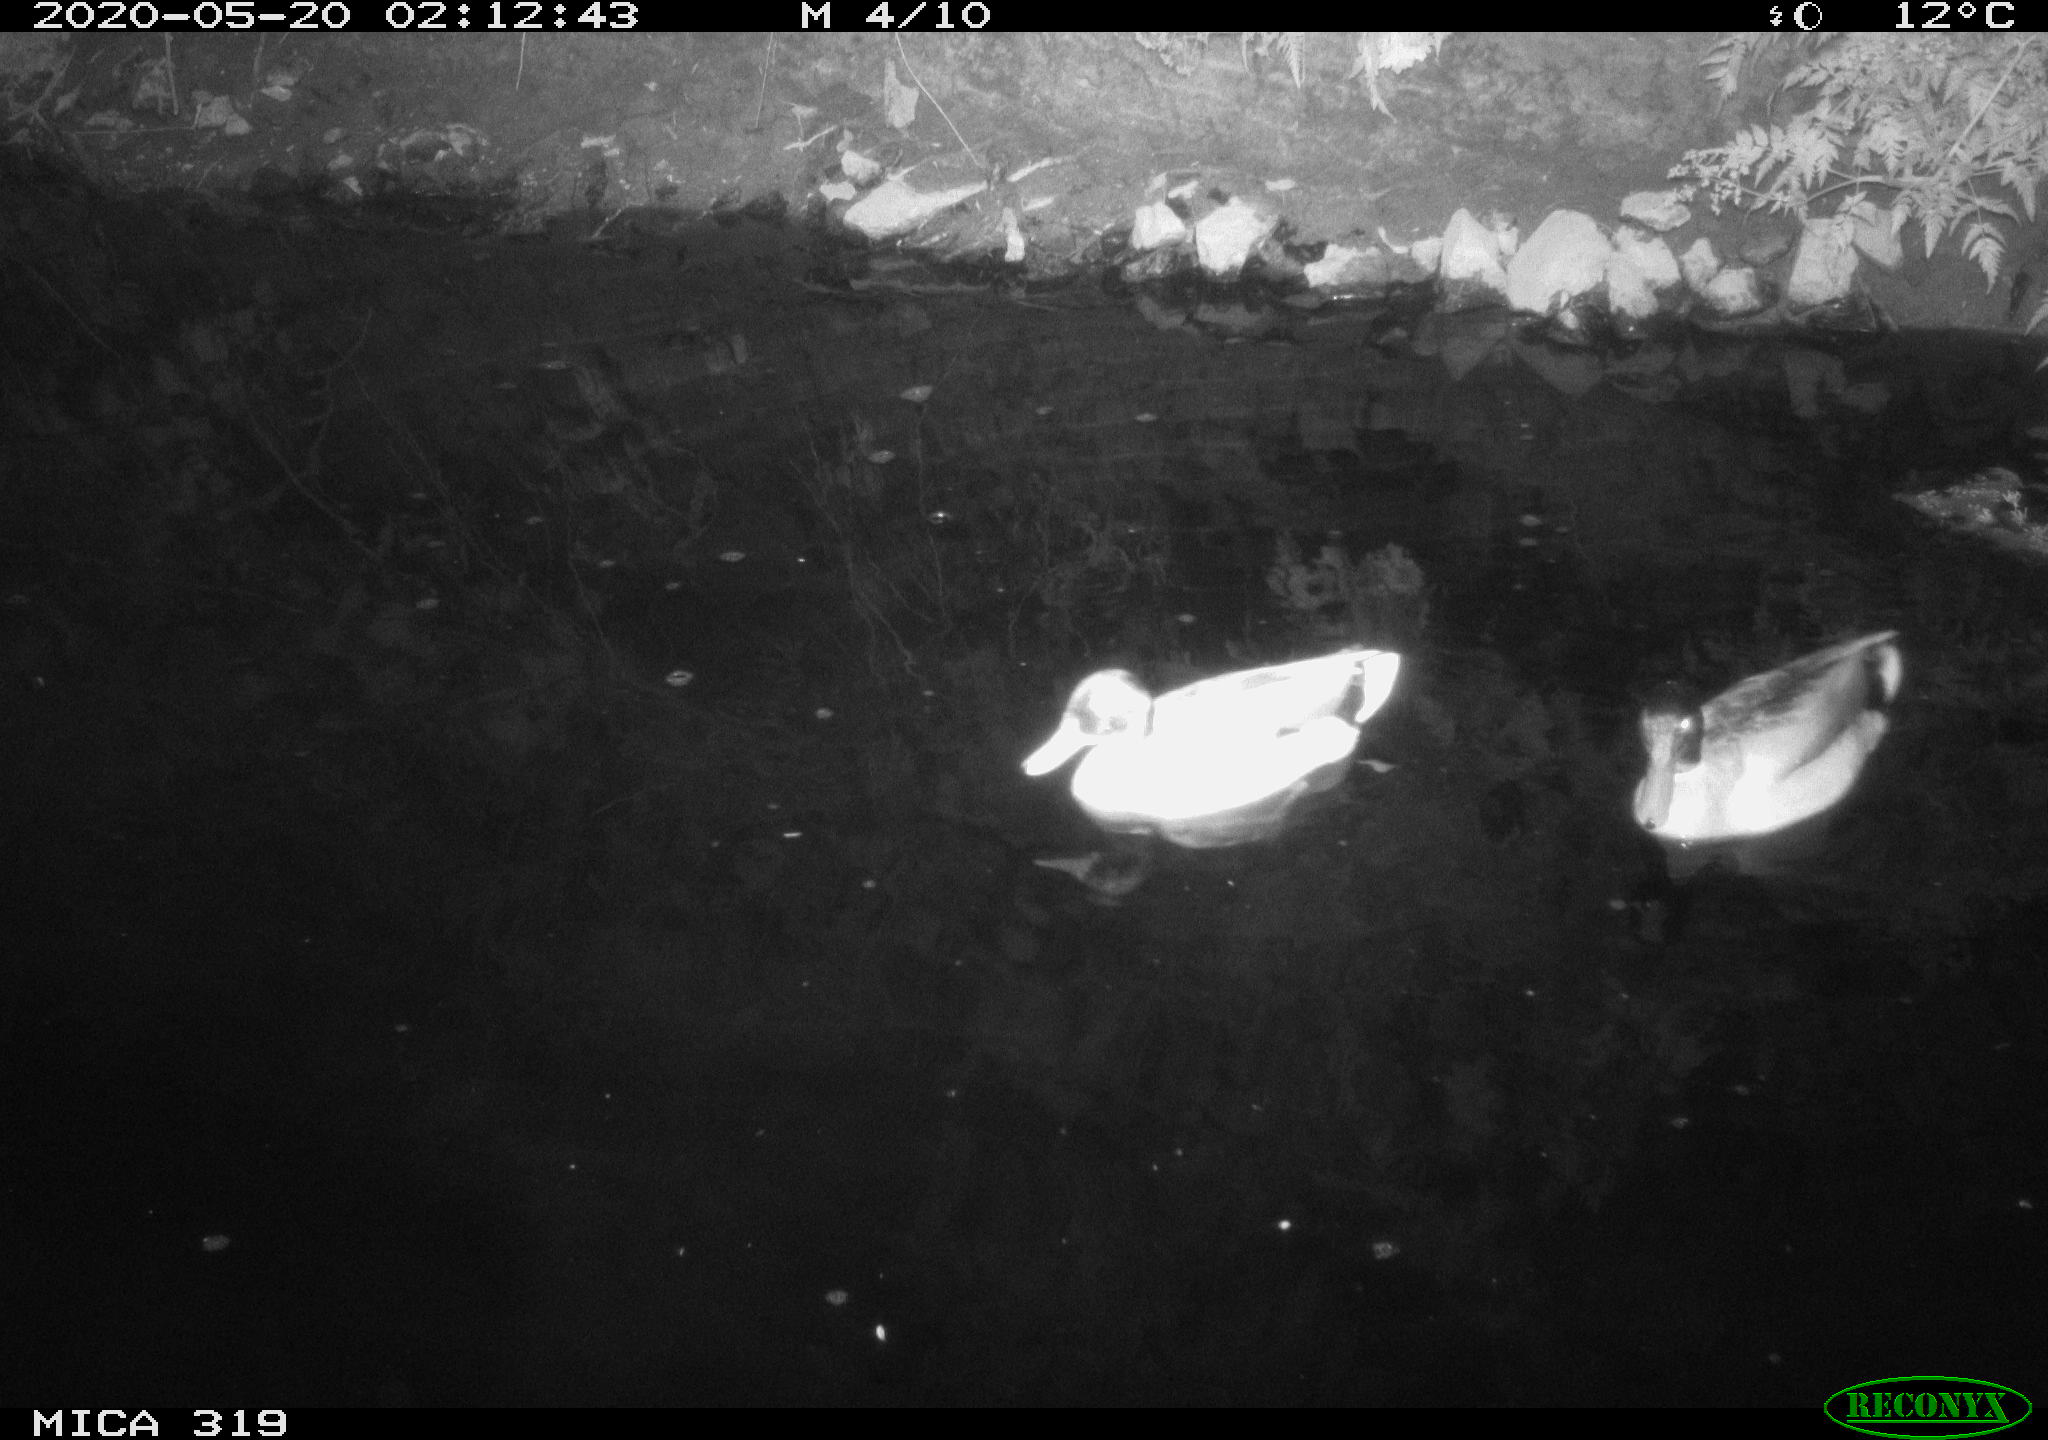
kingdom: Animalia
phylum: Chordata
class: Aves
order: Anseriformes
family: Anatidae
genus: Anas
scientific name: Anas platyrhynchos
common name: Mallard
